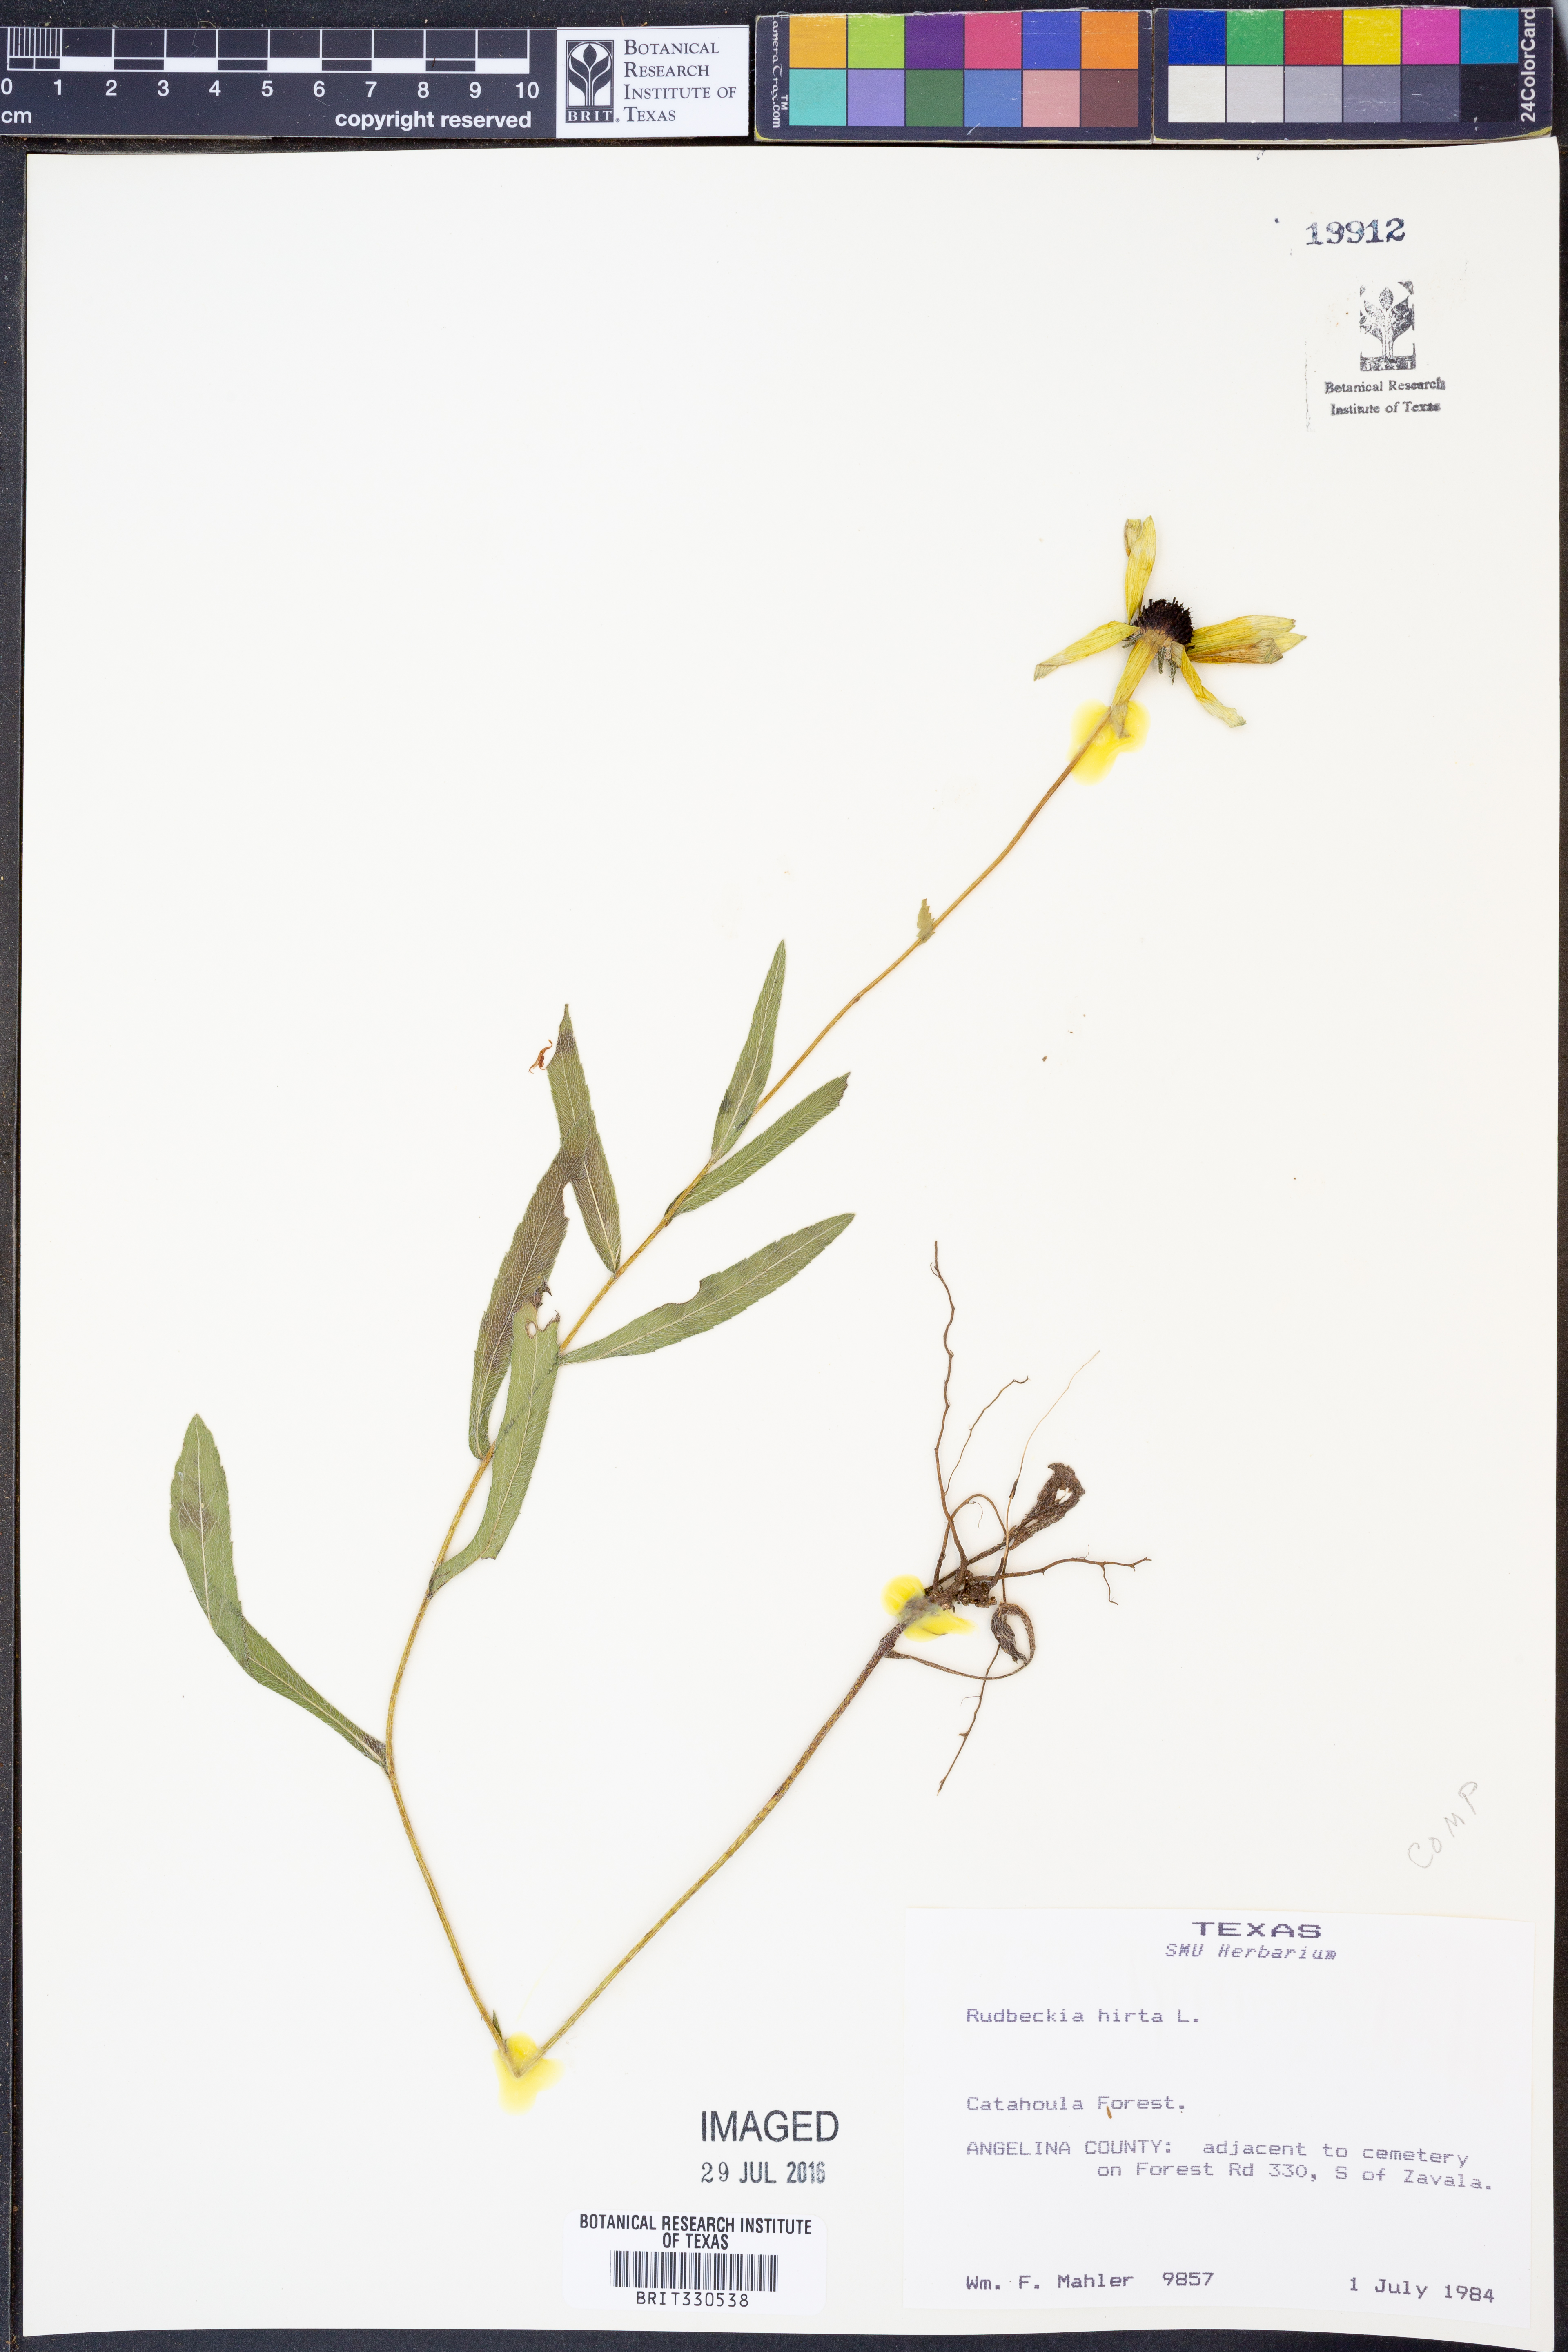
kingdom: Plantae
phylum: Tracheophyta
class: Magnoliopsida
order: Asterales
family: Asteraceae
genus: Rudbeckia
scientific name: Rudbeckia hirta
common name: Black-eyed-susan
